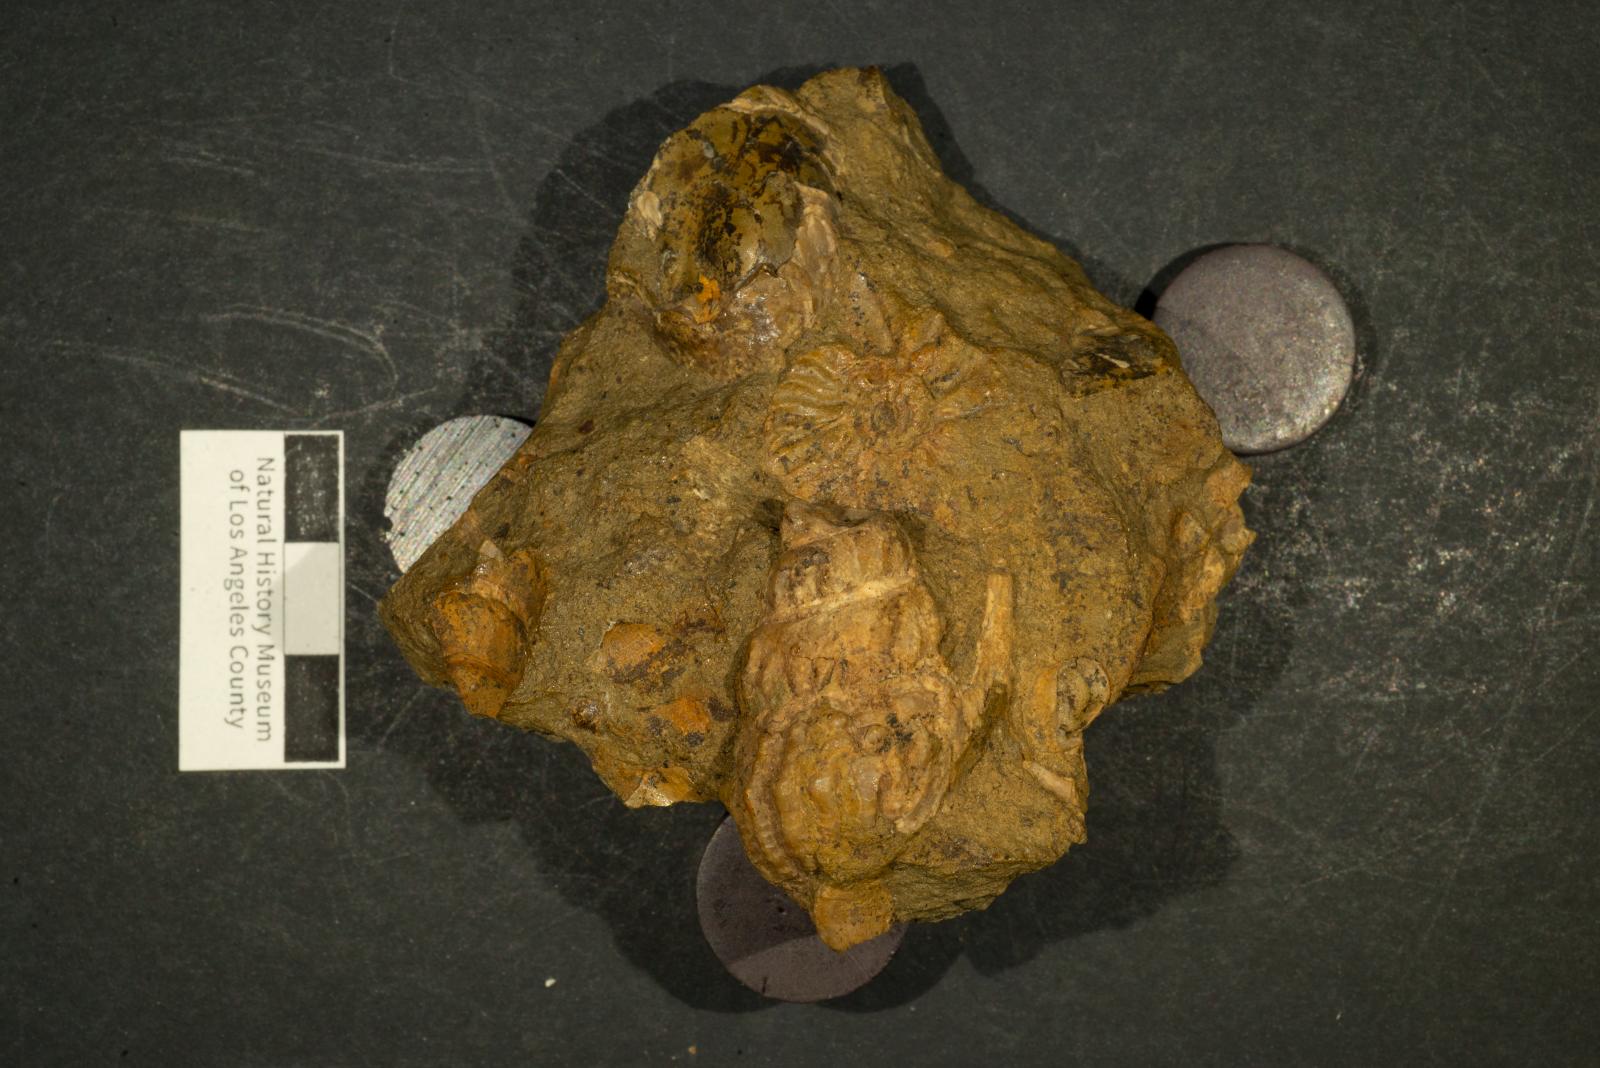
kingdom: Animalia
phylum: Mollusca
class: Gastropoda
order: Littorinimorpha
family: Aporrhaidae
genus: Helicaulax
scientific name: Helicaulax Anchura tricosa
